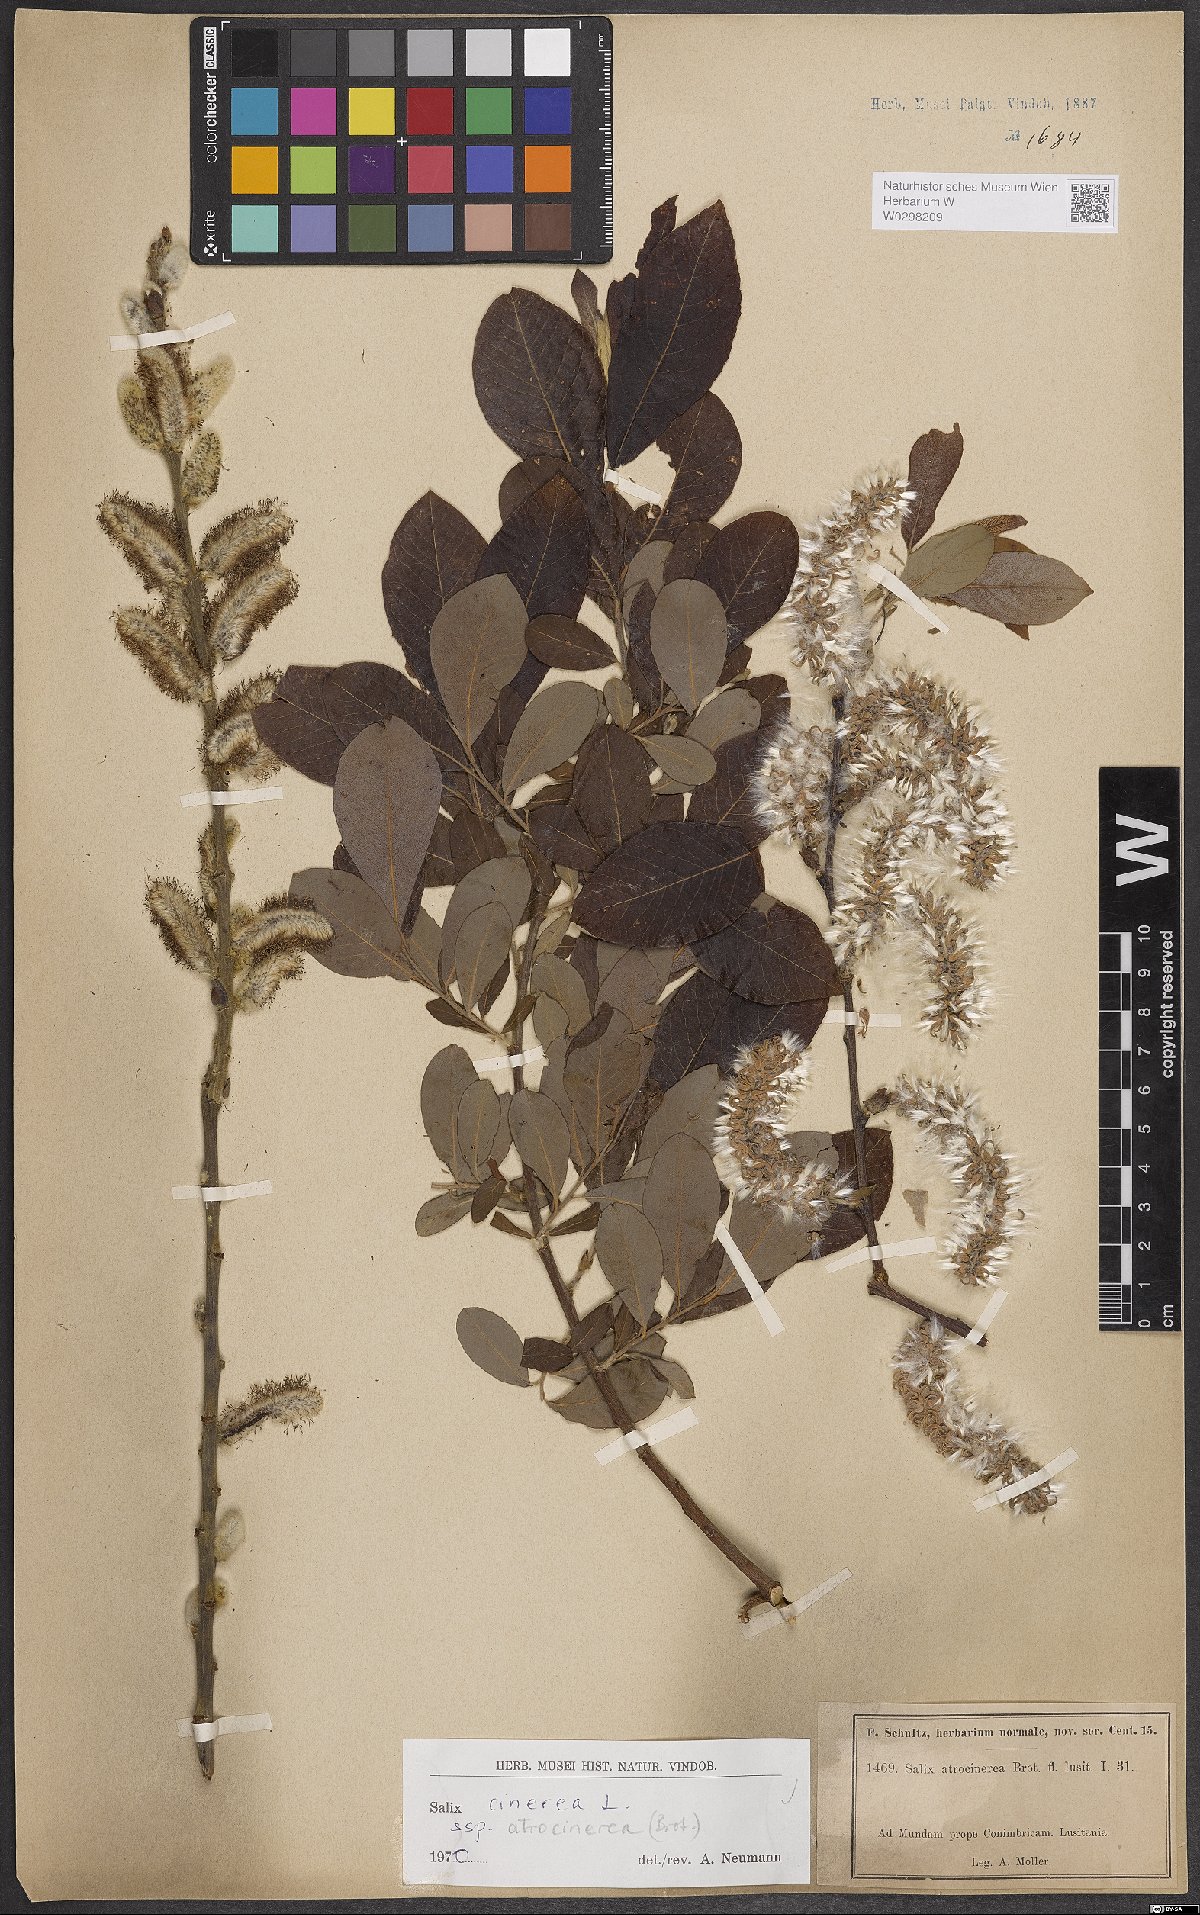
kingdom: Plantae
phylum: Tracheophyta
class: Magnoliopsida
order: Malpighiales
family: Salicaceae
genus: Salix
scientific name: Salix atrocinerea
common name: Rusty willow
